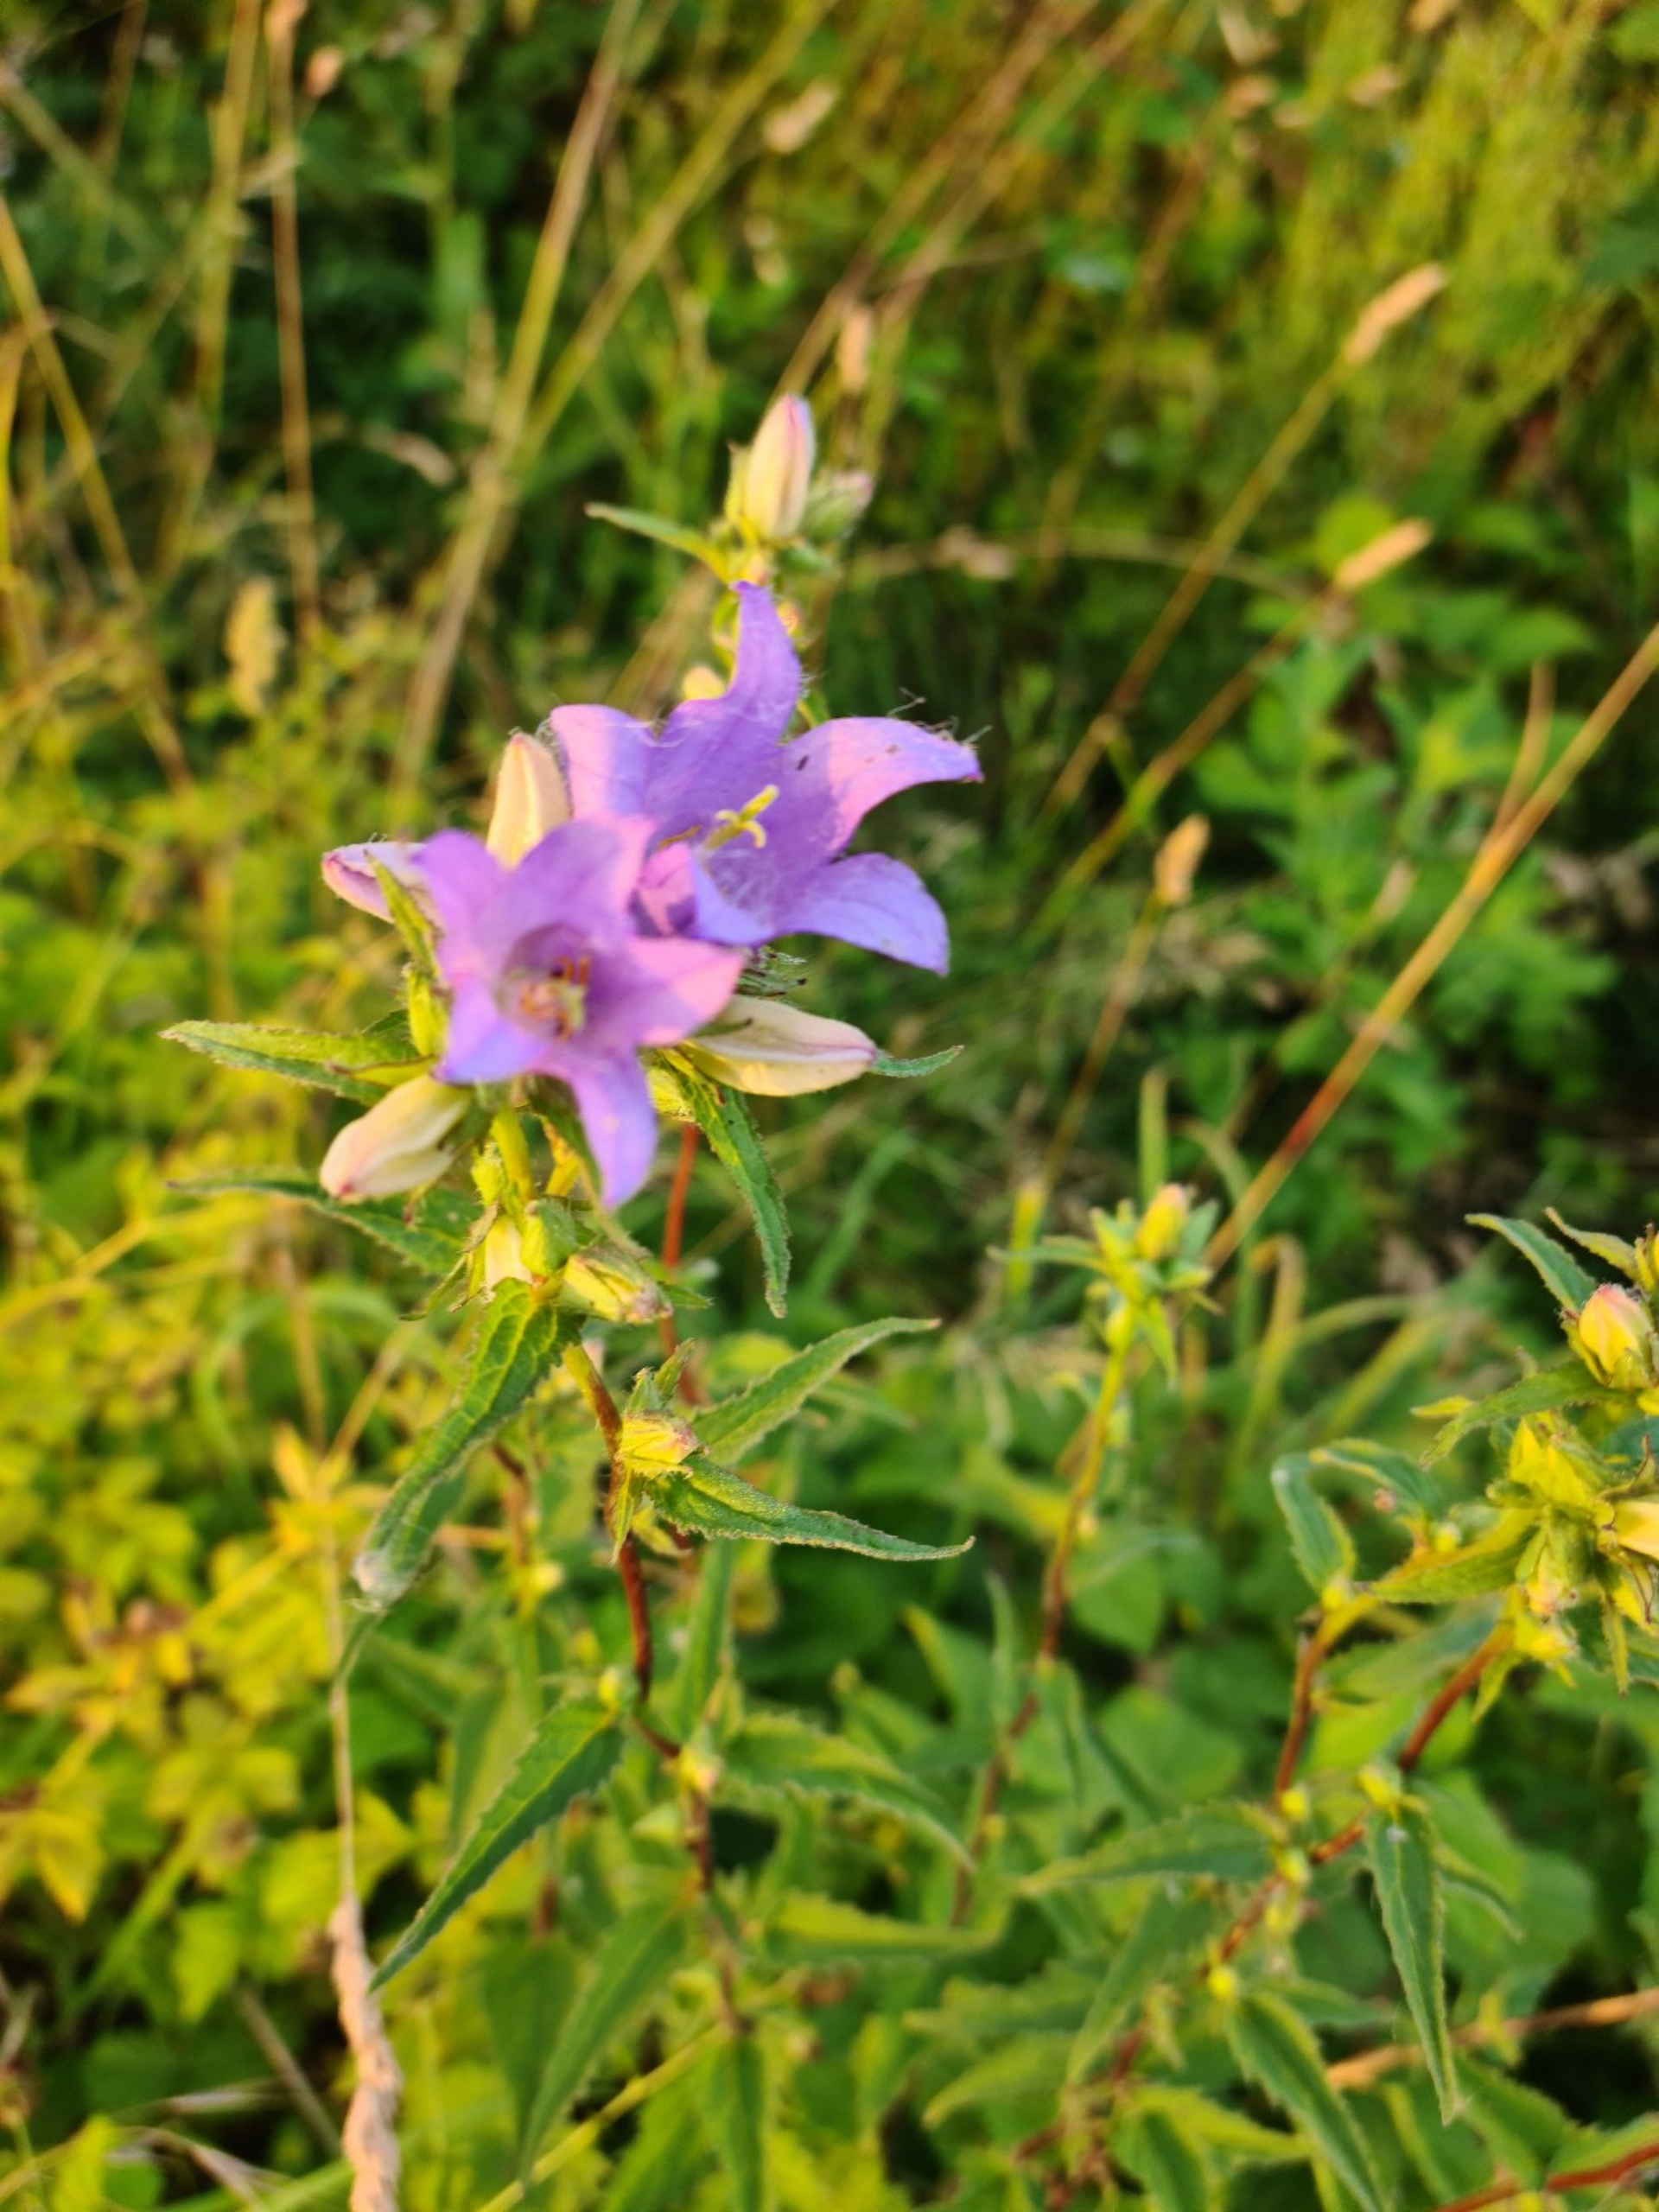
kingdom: Plantae
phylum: Tracheophyta
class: Magnoliopsida
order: Asterales
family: Campanulaceae
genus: Campanula
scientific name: Campanula trachelium
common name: Nælde-klokke
